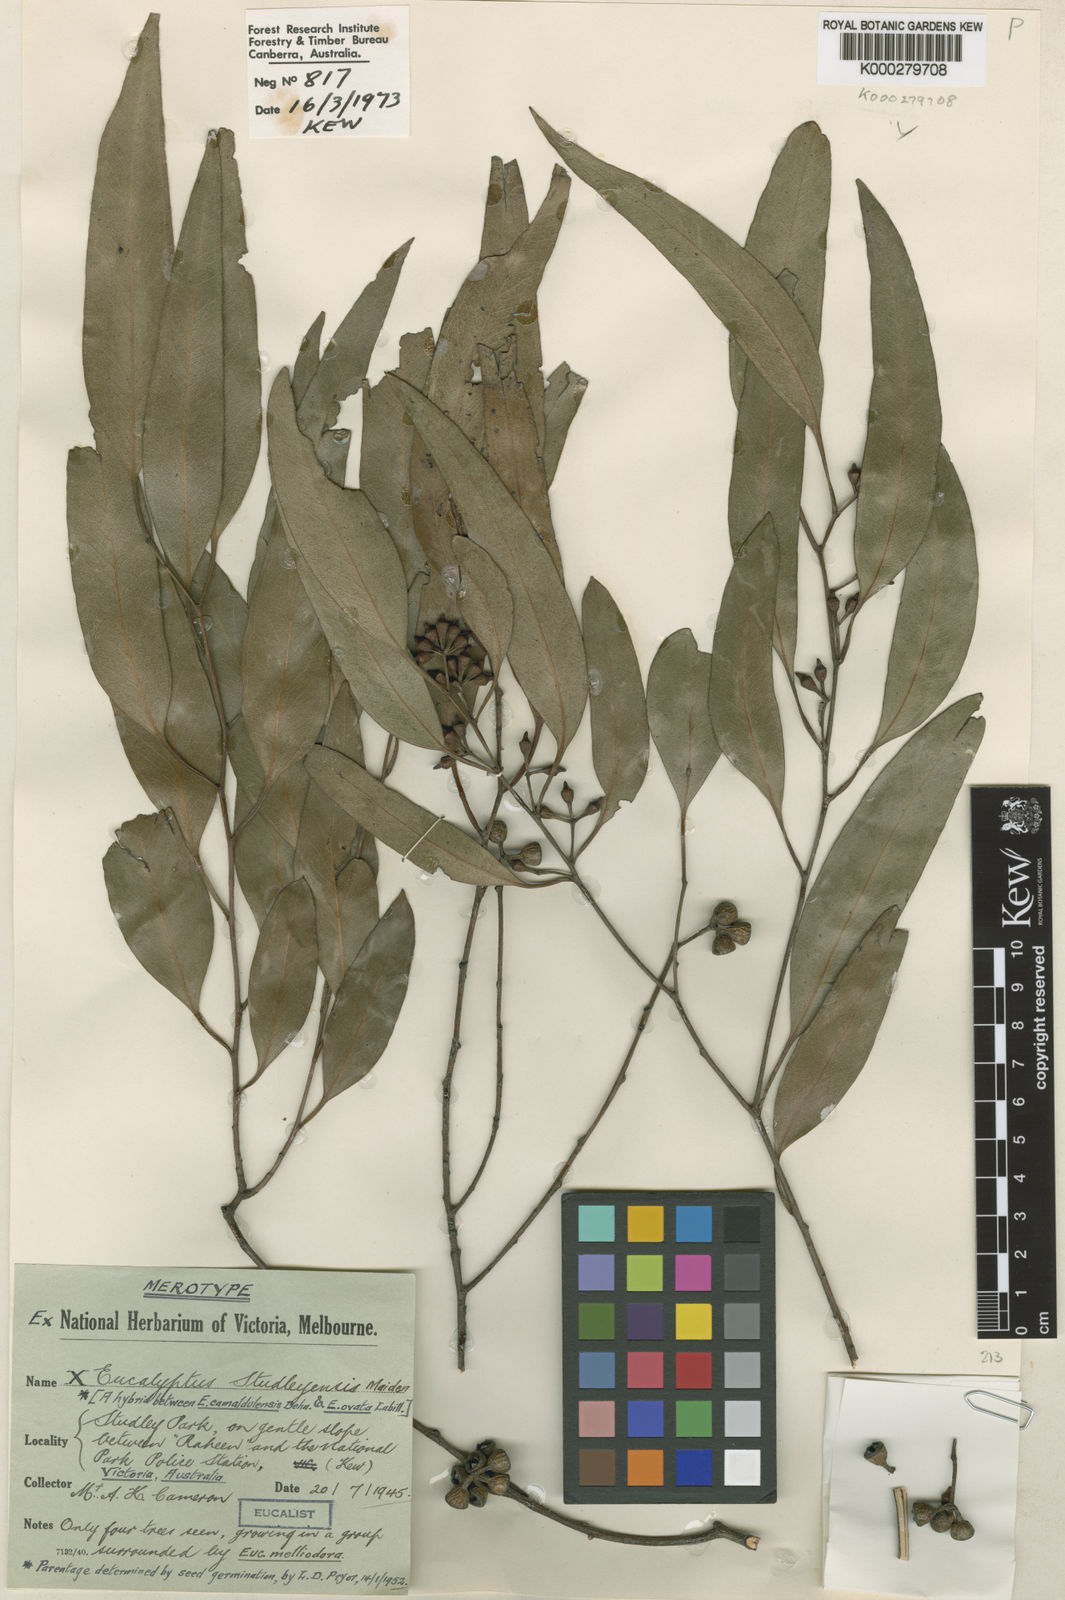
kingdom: Plantae
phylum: Tracheophyta
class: Magnoliopsida
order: Myrtales
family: Myrtaceae
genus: Eucalyptus
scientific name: Eucalyptus studleyensis
